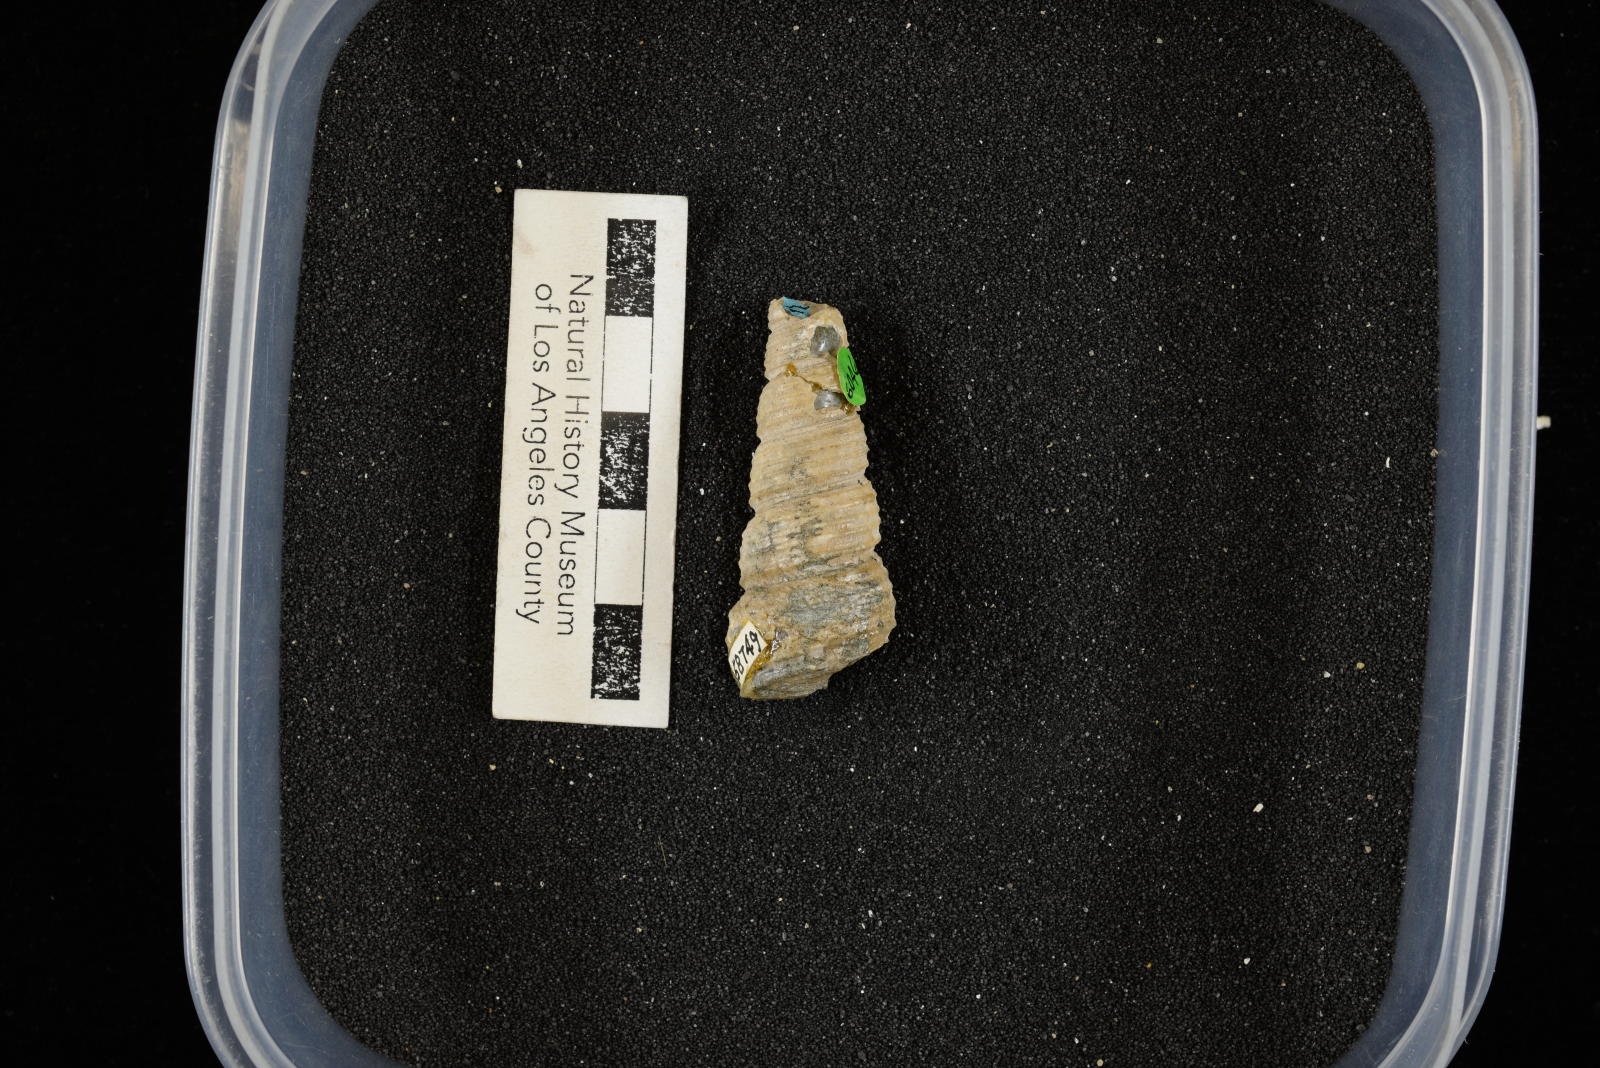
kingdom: Animalia
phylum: Mollusca
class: Gastropoda
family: Turritellidae
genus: Turritella
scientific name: Turritella chicoensis
